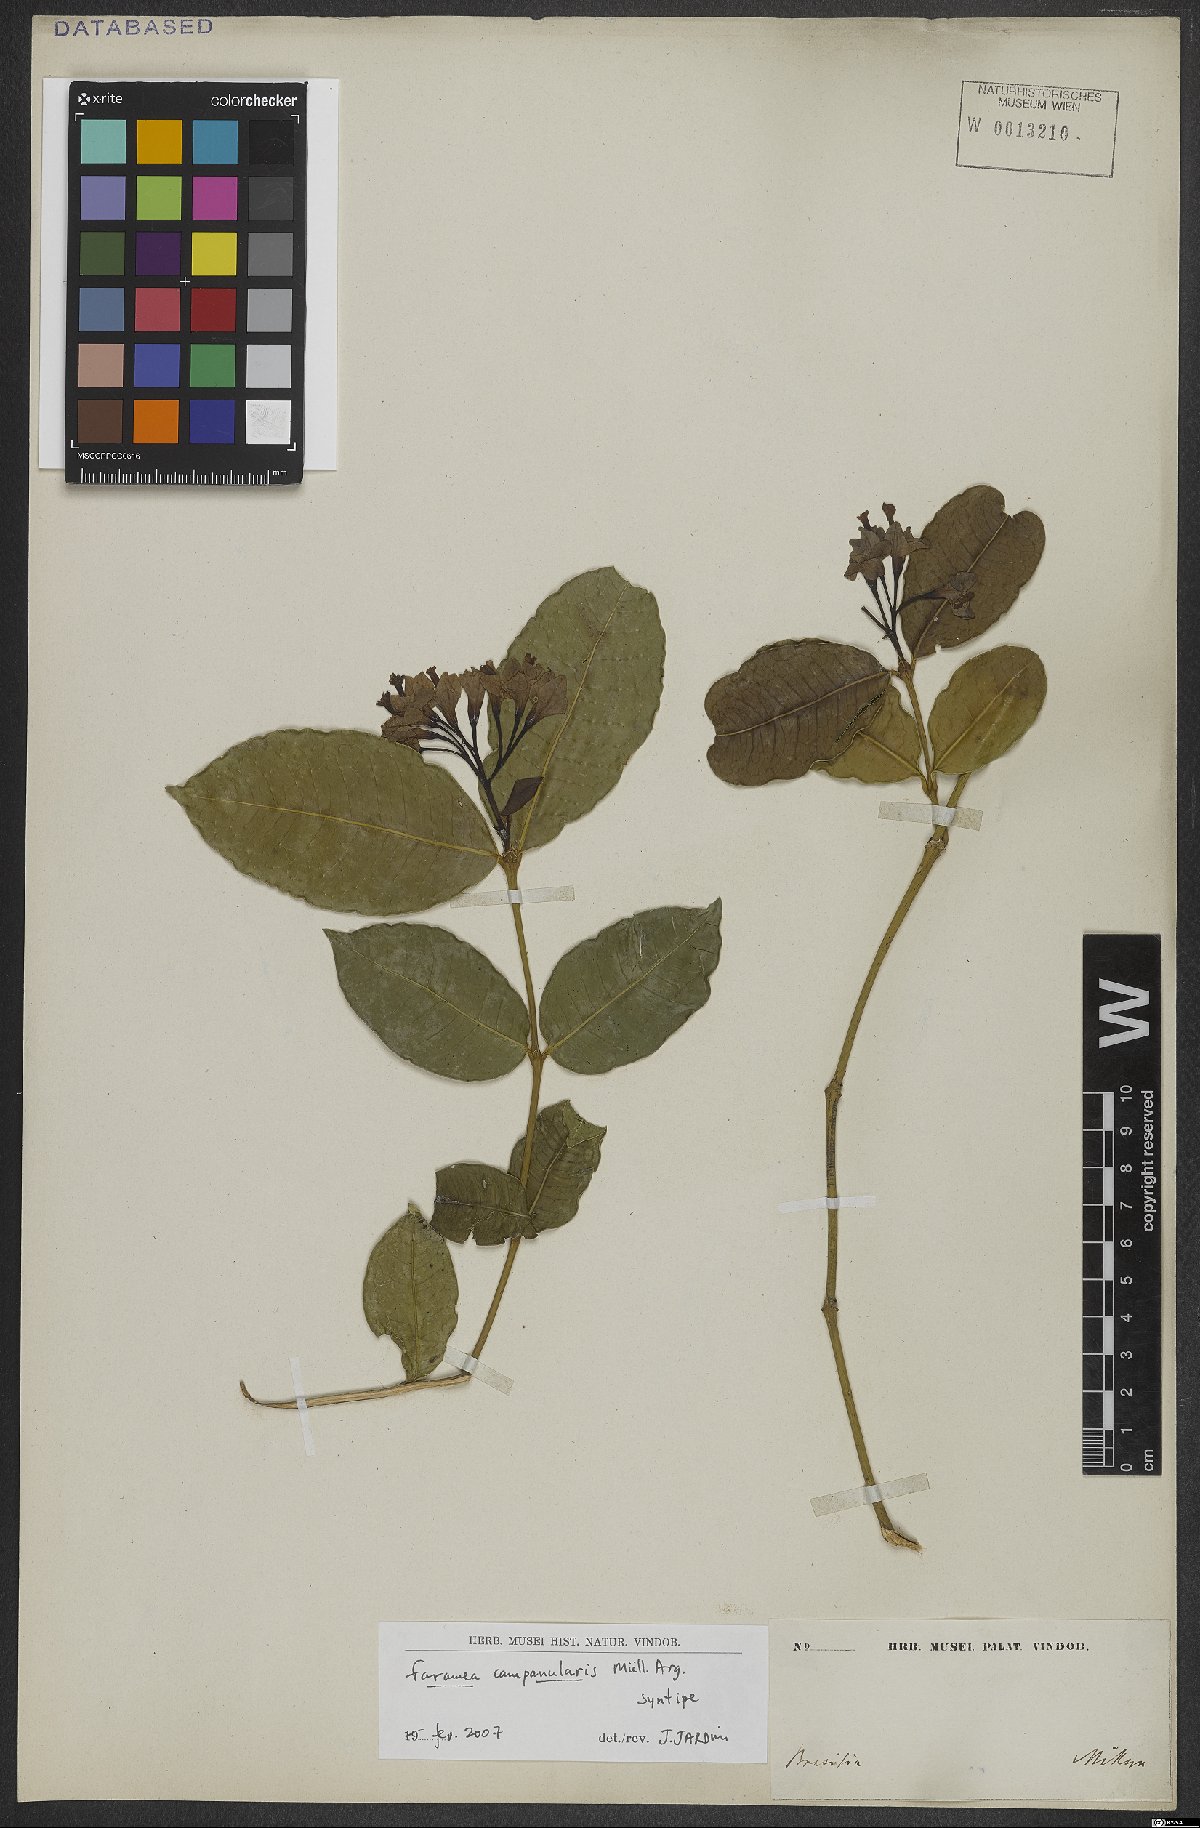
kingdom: Plantae
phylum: Tracheophyta
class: Magnoliopsida
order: Gentianales
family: Rubiaceae
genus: Faramea
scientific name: Faramea campanularis
